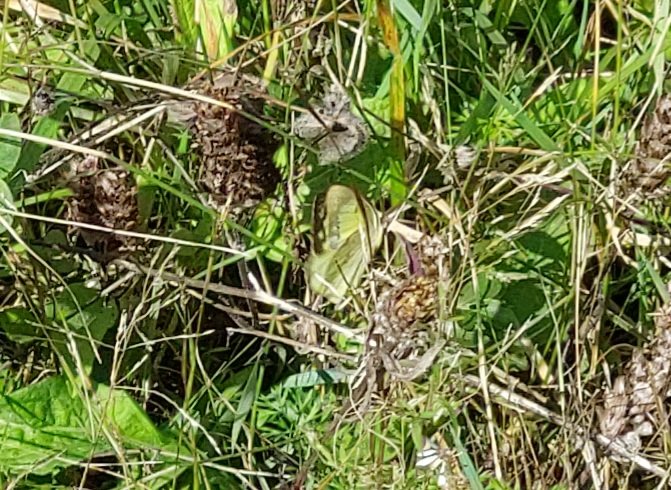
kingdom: Animalia
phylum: Arthropoda
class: Insecta
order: Lepidoptera
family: Pieridae
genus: Colias
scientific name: Colias philodice
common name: Clouded Sulphur
